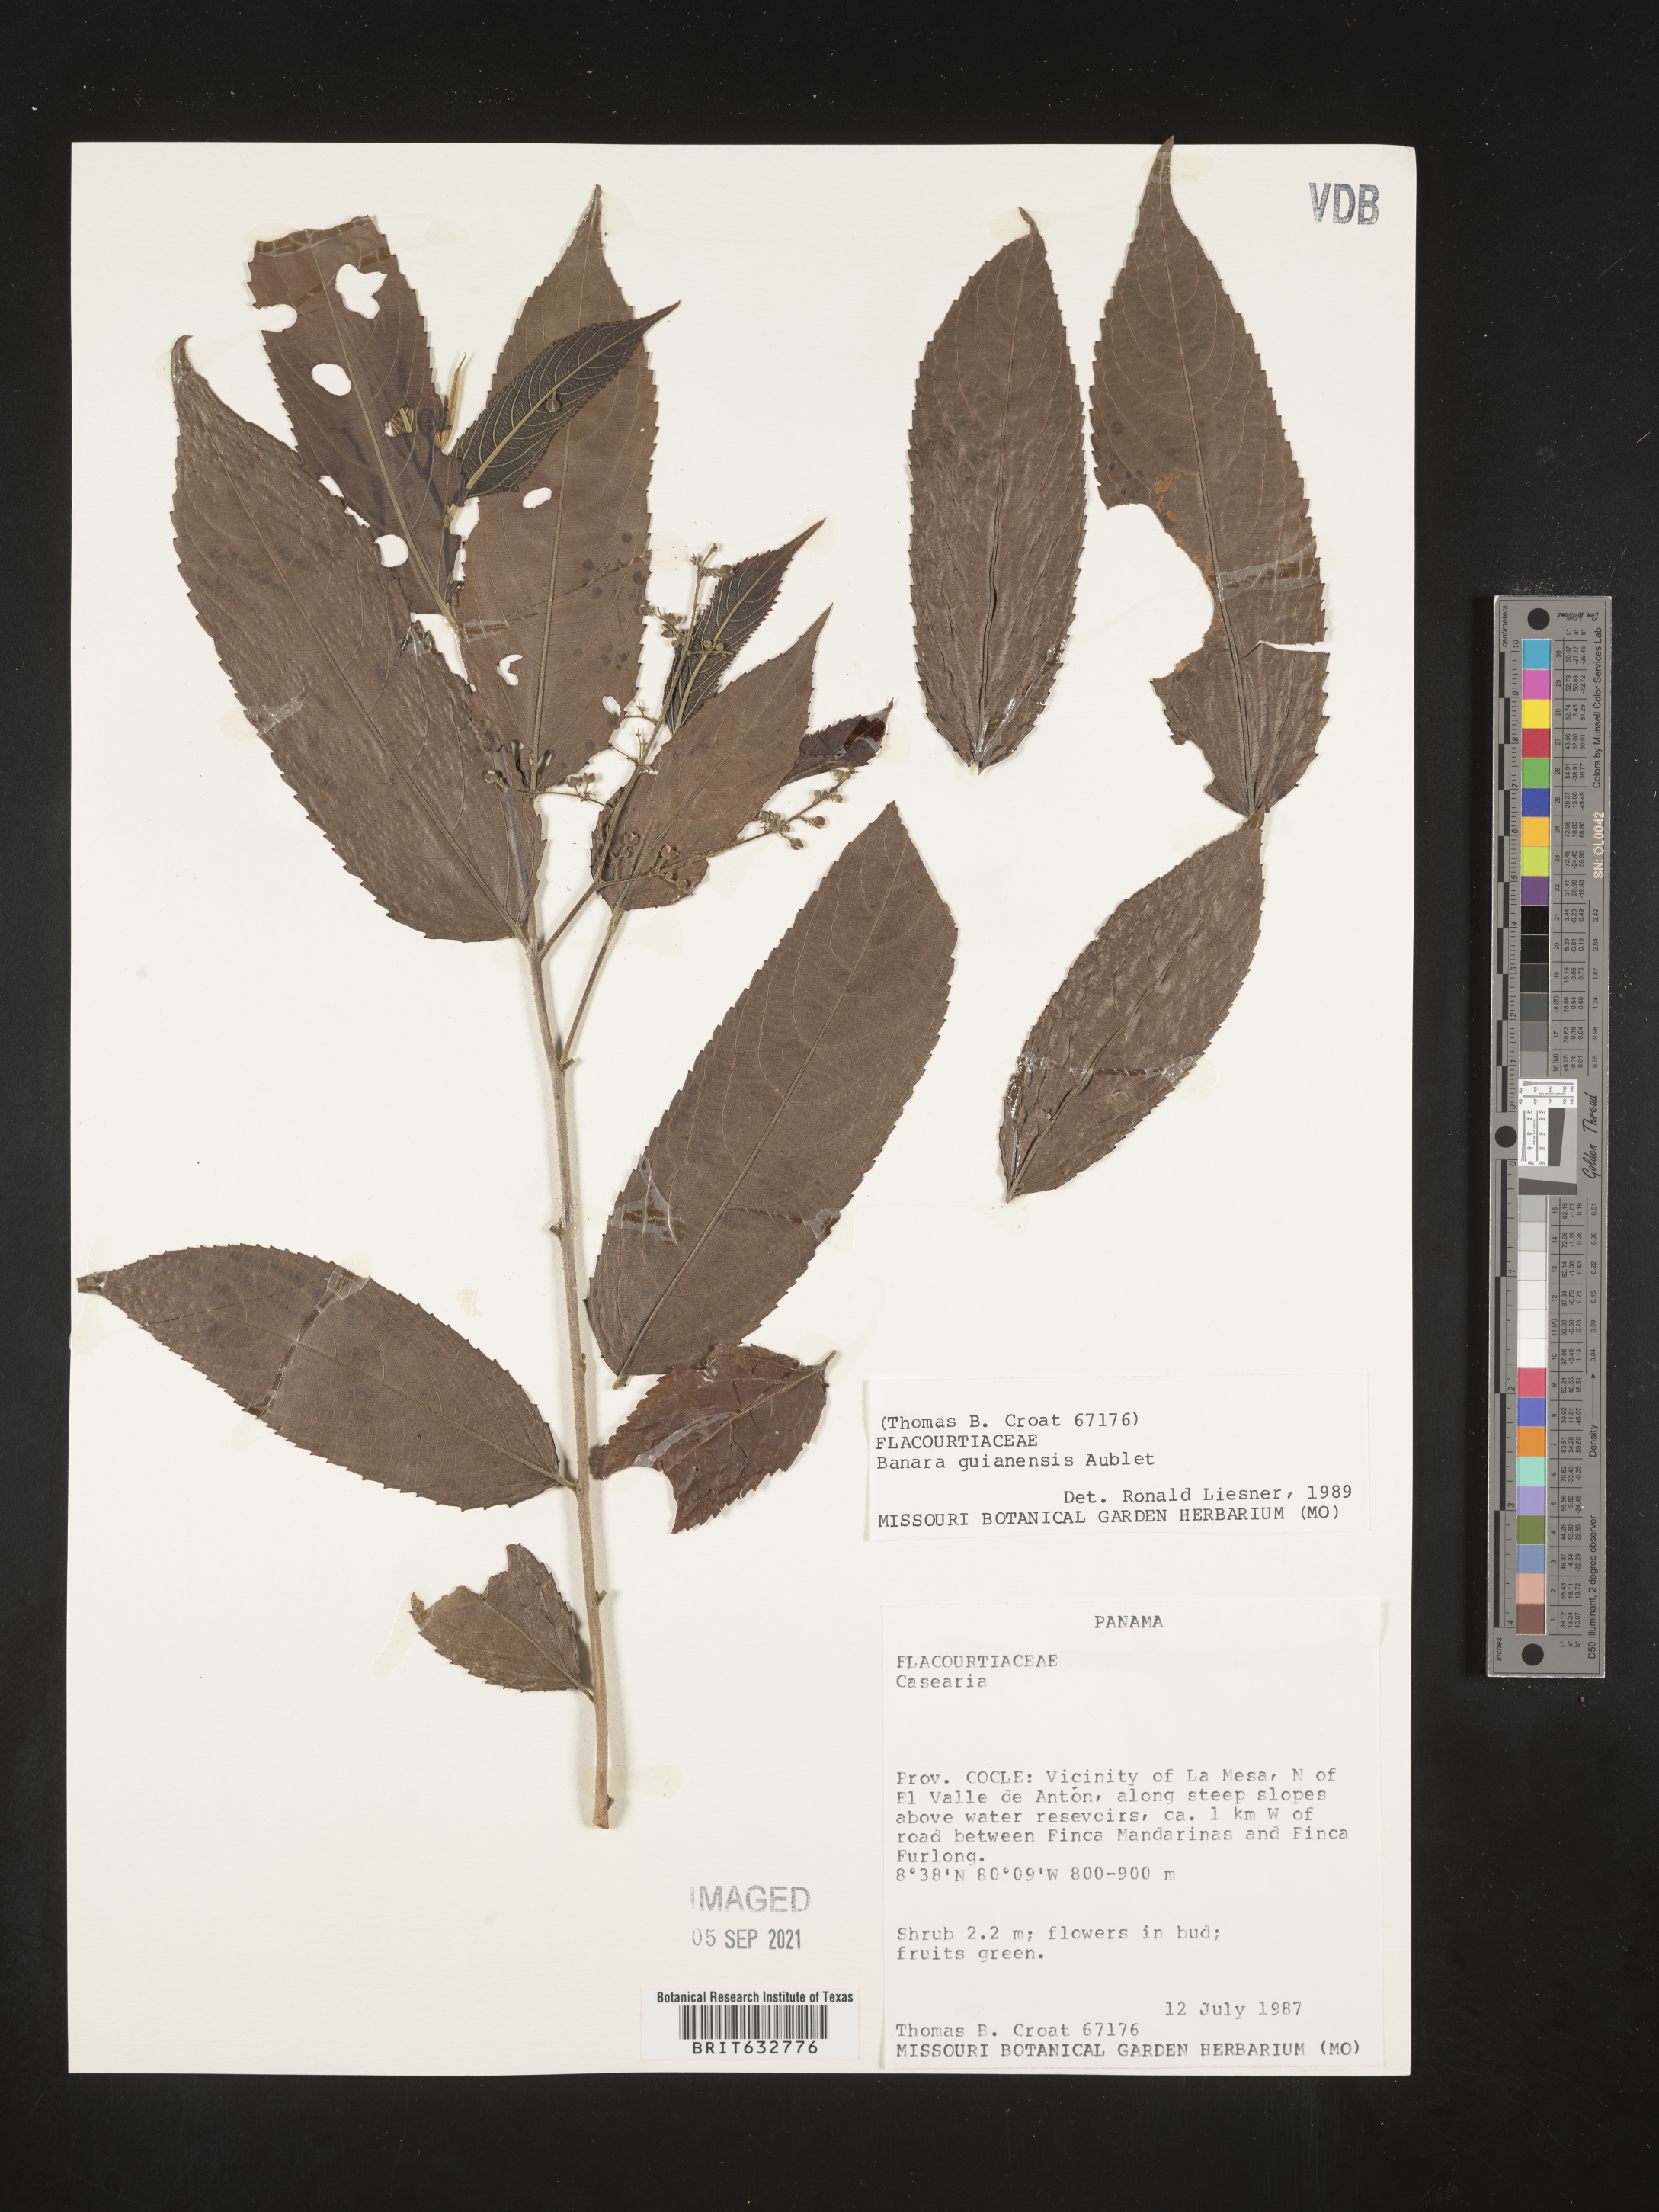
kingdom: Plantae
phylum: Tracheophyta
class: Magnoliopsida
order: Malpighiales
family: Salicaceae
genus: Banara
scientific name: Banara
